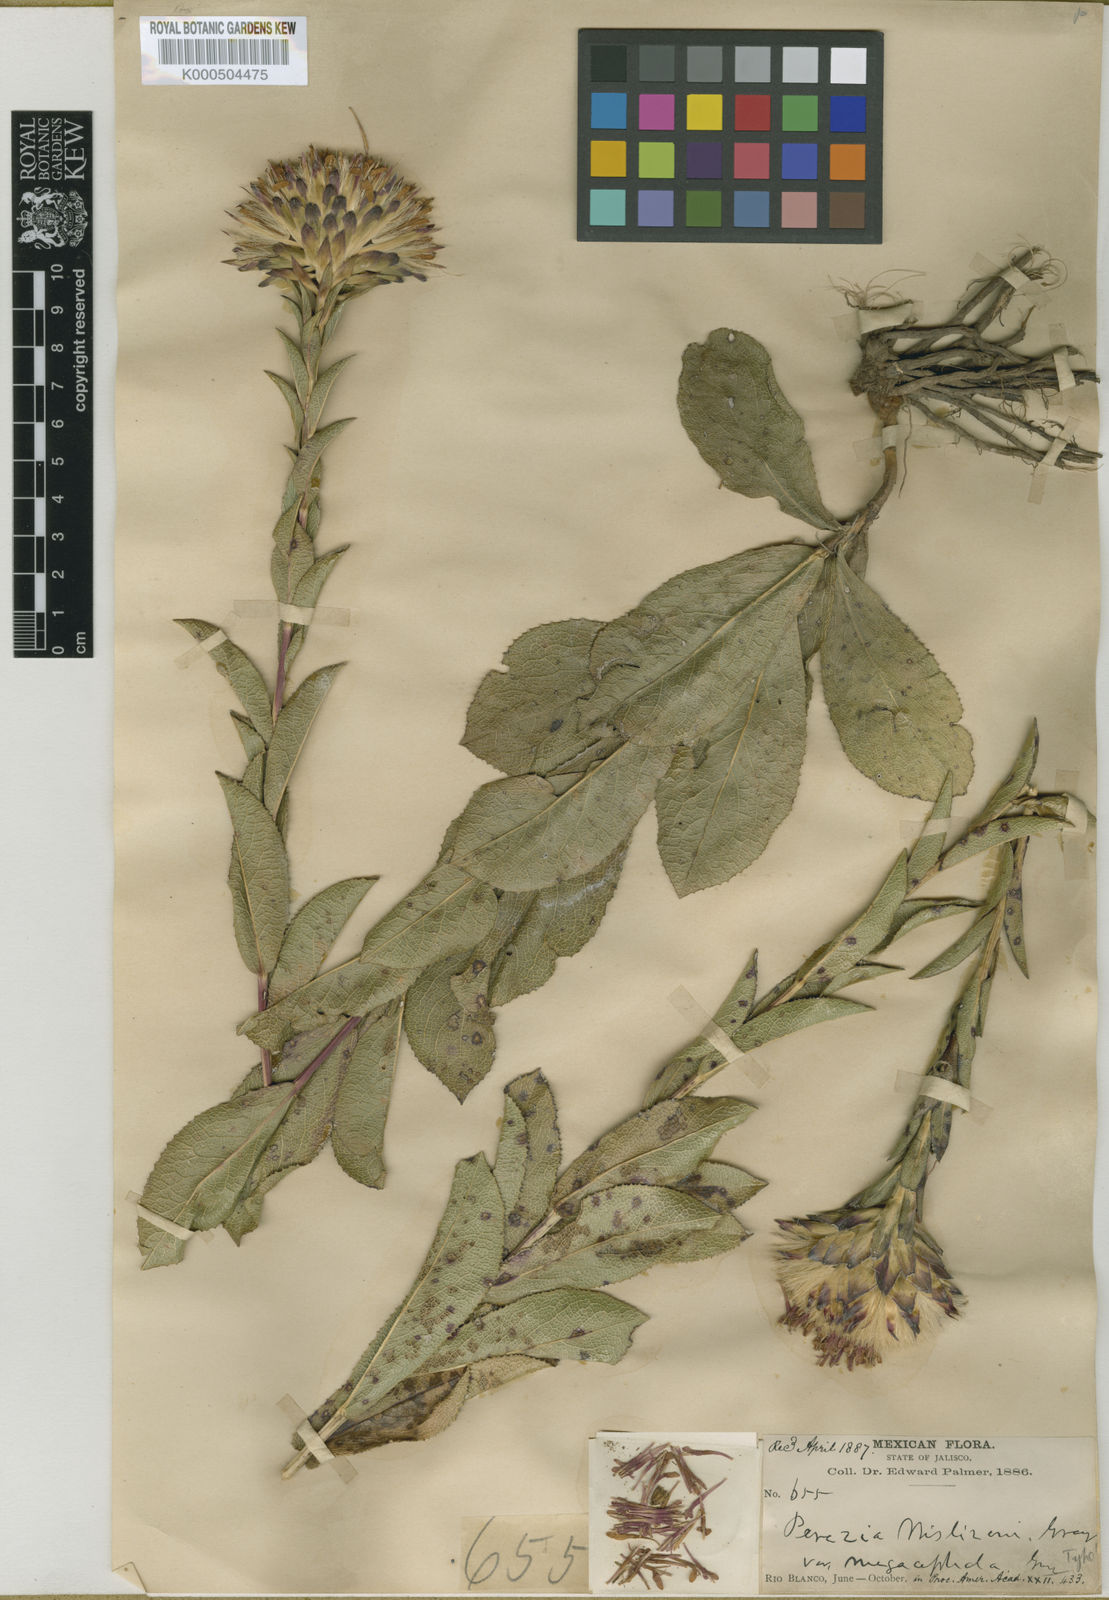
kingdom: Plantae
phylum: Tracheophyta
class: Magnoliopsida
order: Asterales
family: Asteraceae
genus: Acourtia
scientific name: Acourtia wislizeni
